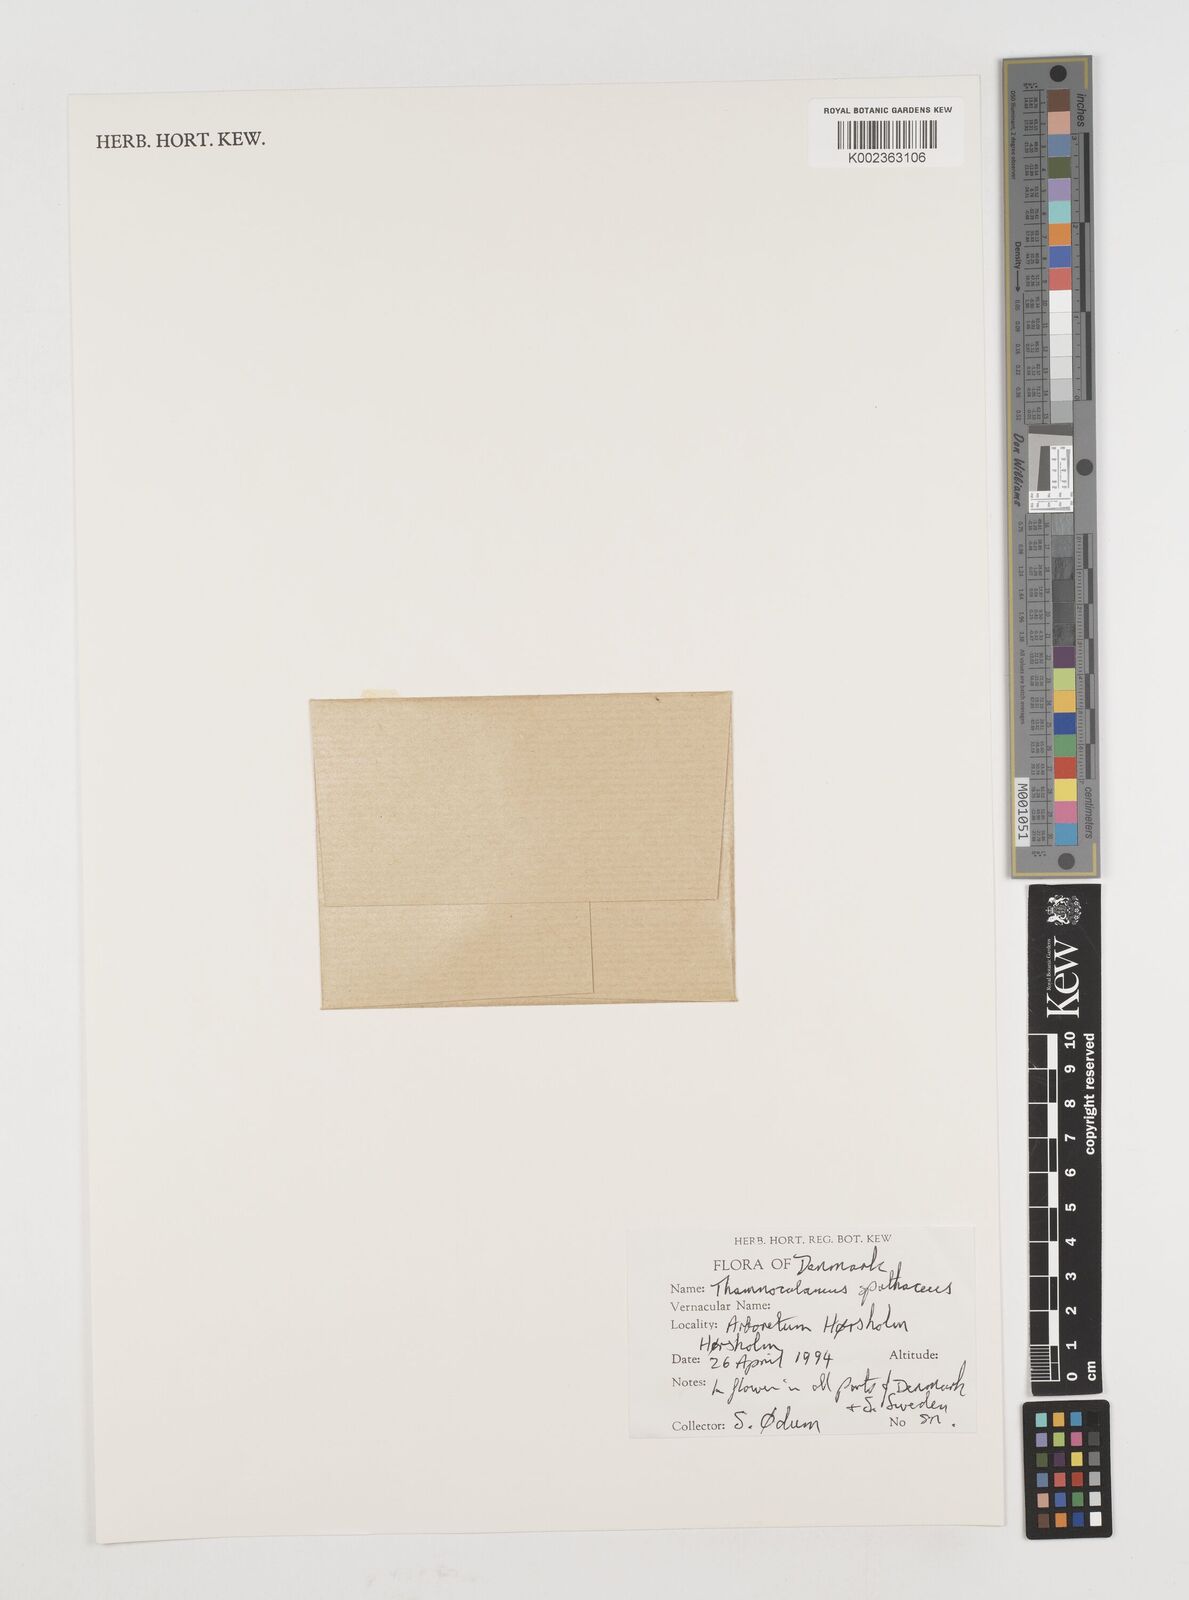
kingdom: Plantae
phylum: Tracheophyta
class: Liliopsida
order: Poales
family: Poaceae
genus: Fargesia
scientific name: Fargesia murielae
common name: Umbrella bamboo
